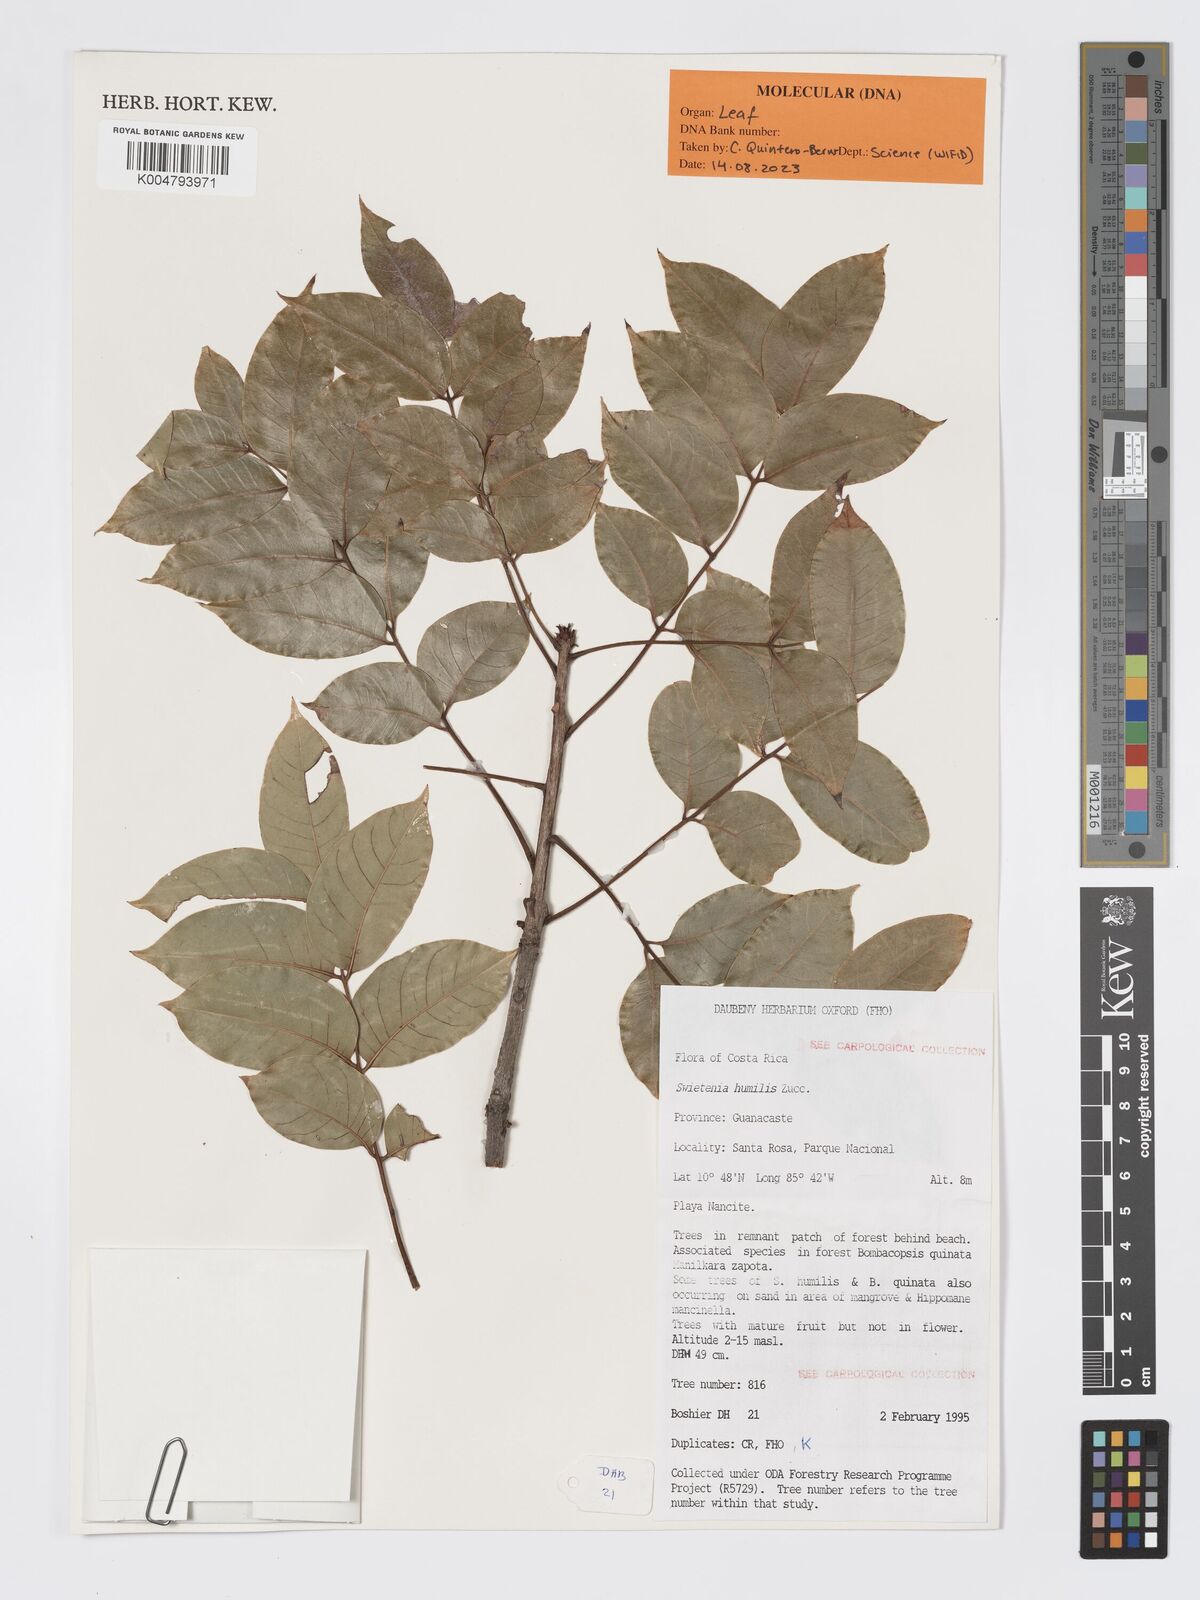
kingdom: Plantae
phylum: Tracheophyta
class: Magnoliopsida
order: Sapindales
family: Meliaceae
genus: Swietenia
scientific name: Swietenia humilis
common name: Pacific coast mahogany
